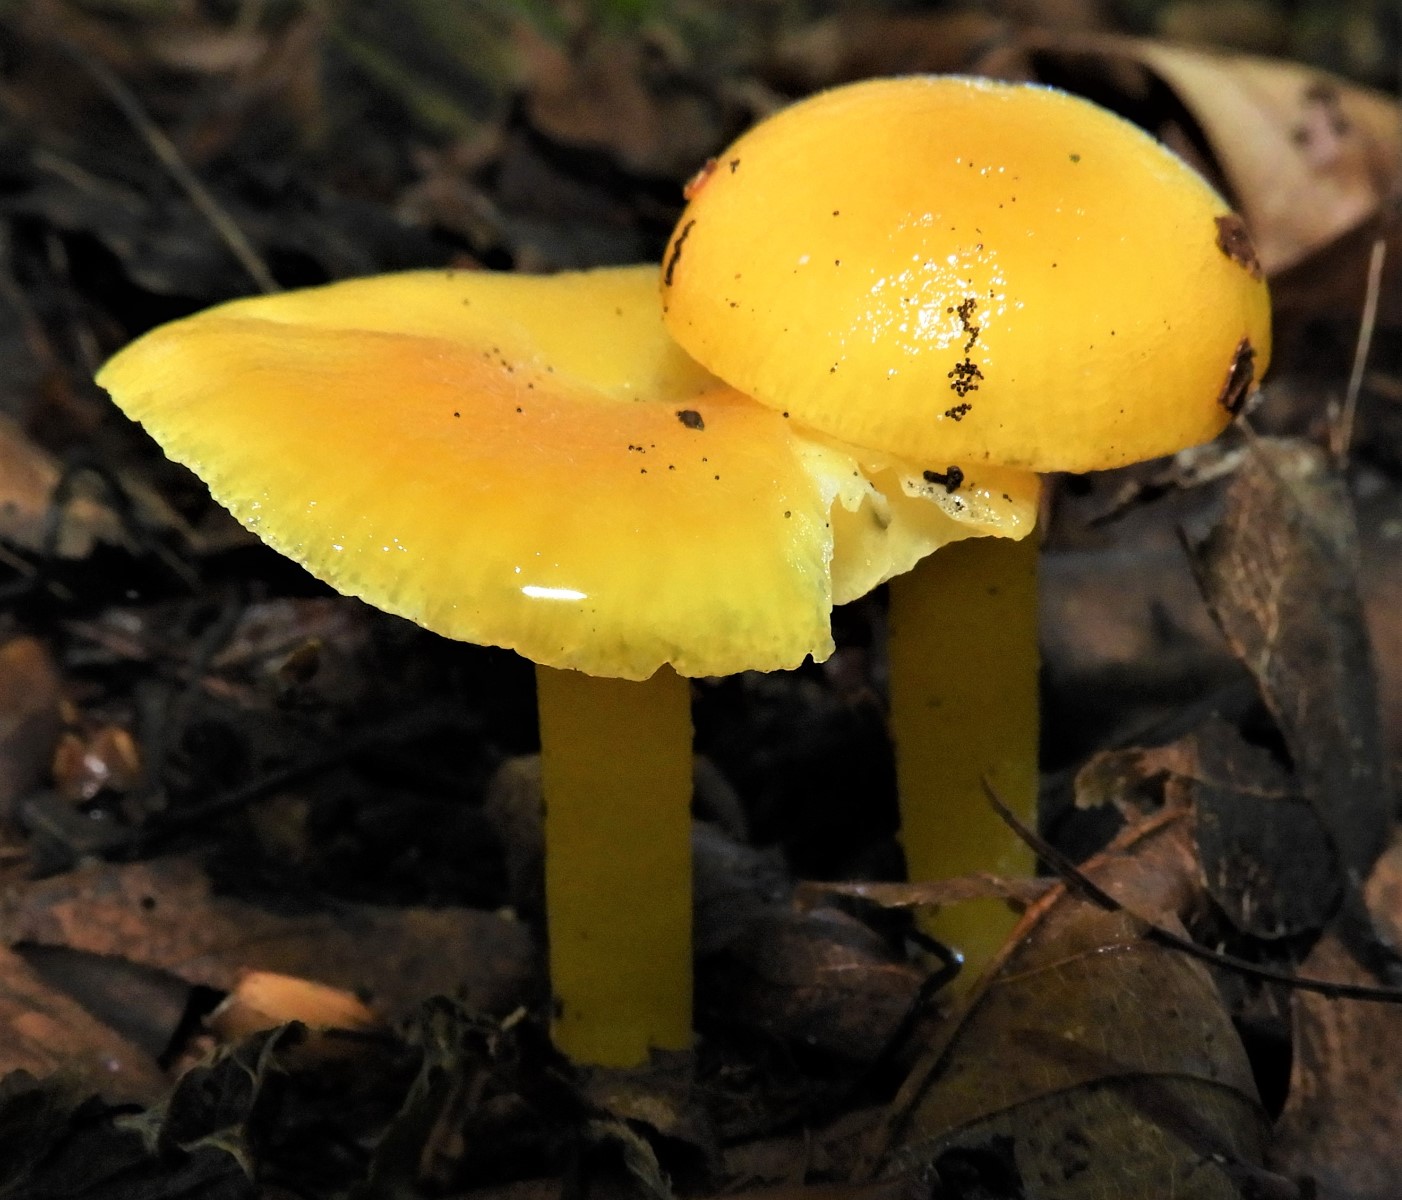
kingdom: Fungi
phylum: Basidiomycota
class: Agaricomycetes
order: Agaricales
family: Hygrophoraceae
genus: Hygrocybe
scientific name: Hygrocybe
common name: vokshat
